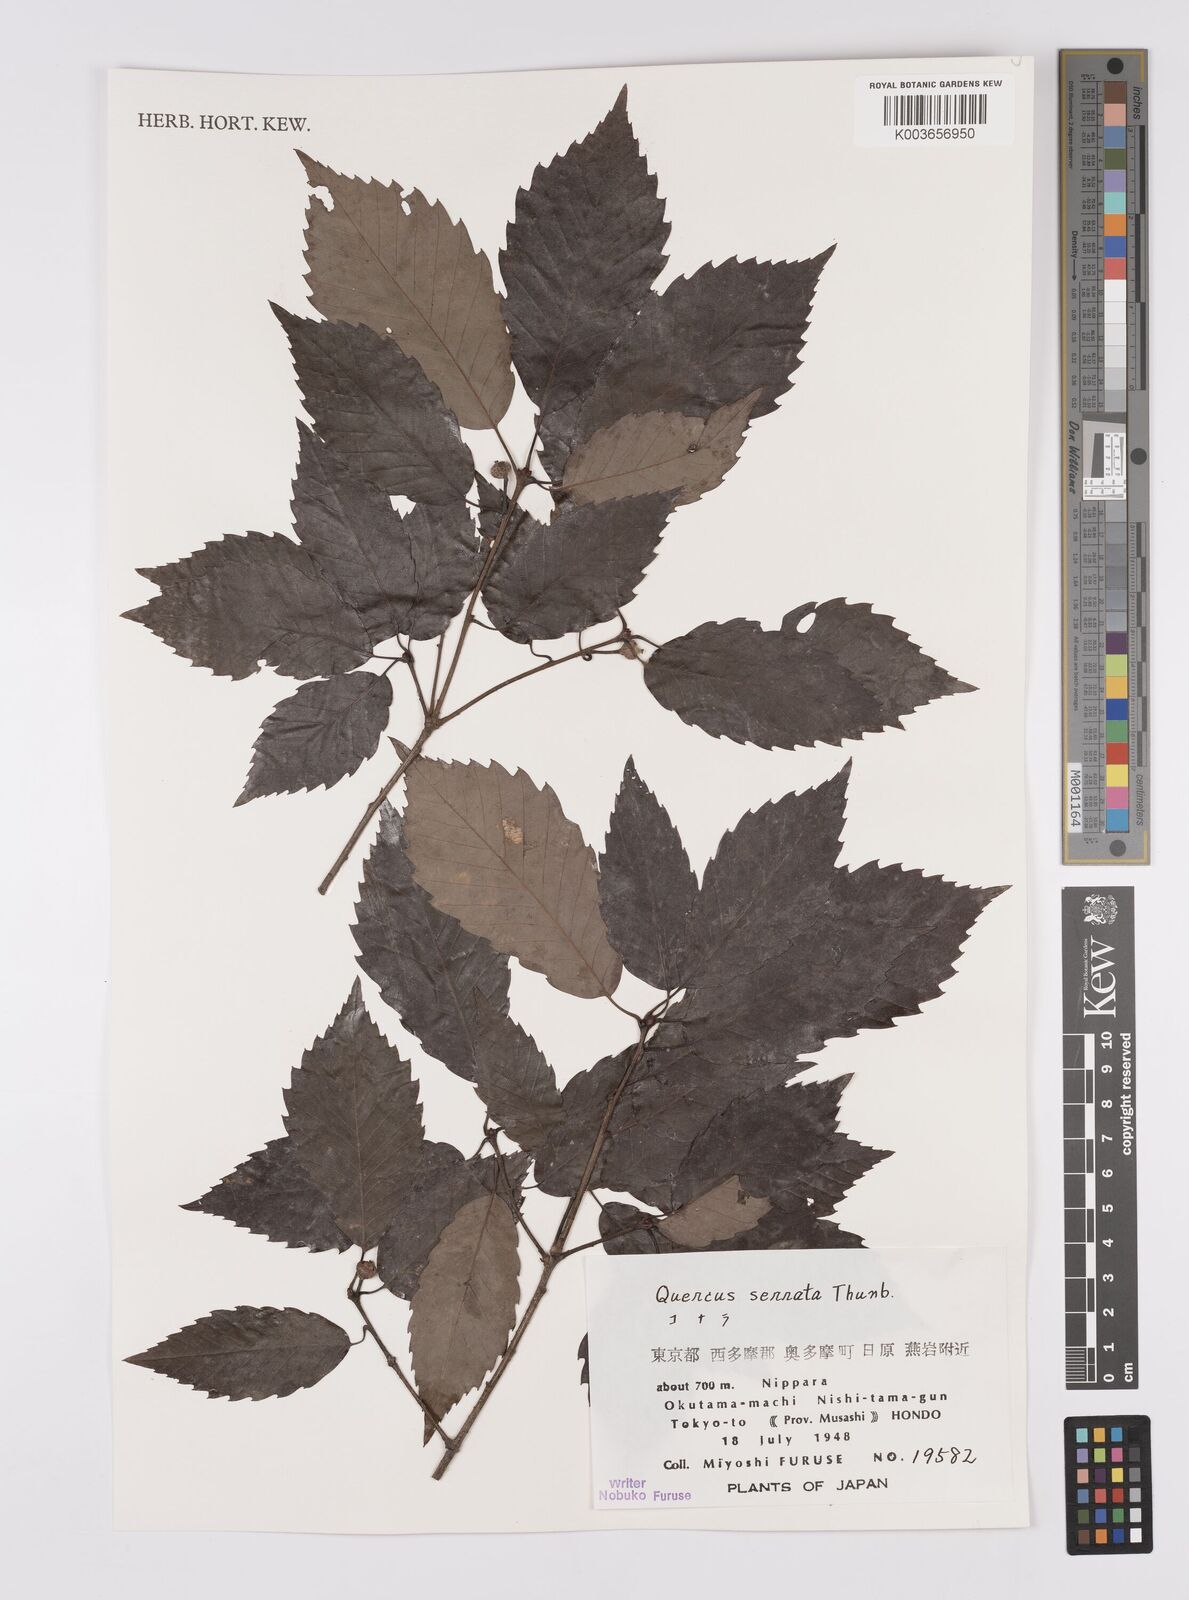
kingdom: Plantae
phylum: Tracheophyta
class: Magnoliopsida
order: Fagales
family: Fagaceae
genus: Quercus
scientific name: Quercus serrata
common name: Bao li
